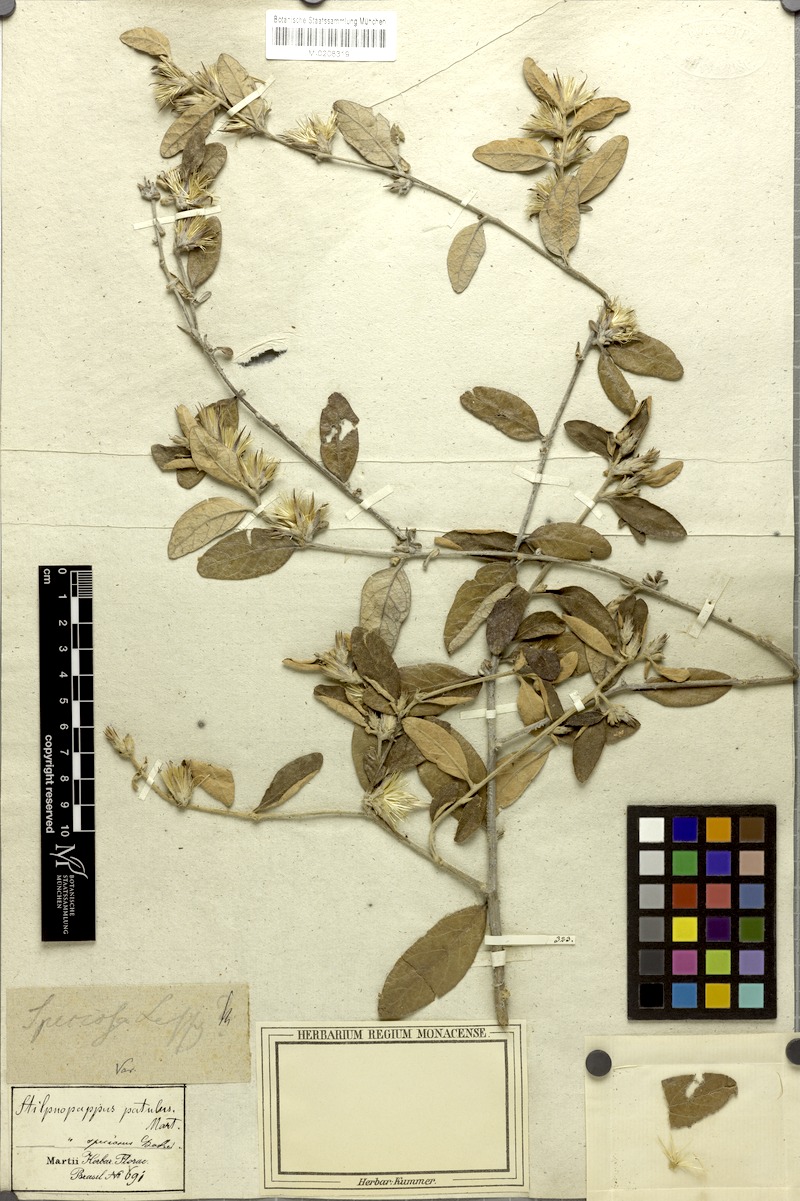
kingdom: Plantae
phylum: Tracheophyta
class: Magnoliopsida
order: Asterales
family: Asteraceae
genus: Stilpnopappus
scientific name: Stilpnopappus speciosus
